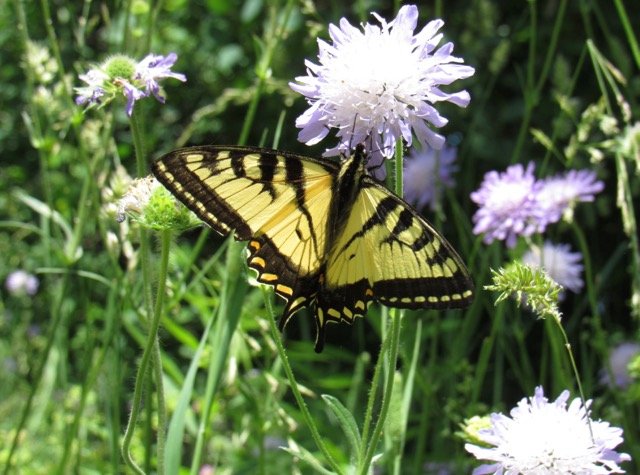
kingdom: Animalia
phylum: Arthropoda
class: Insecta
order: Lepidoptera
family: Papilionidae
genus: Pterourus
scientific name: Pterourus canadensis
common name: Canadian Tiger Swallowtail
